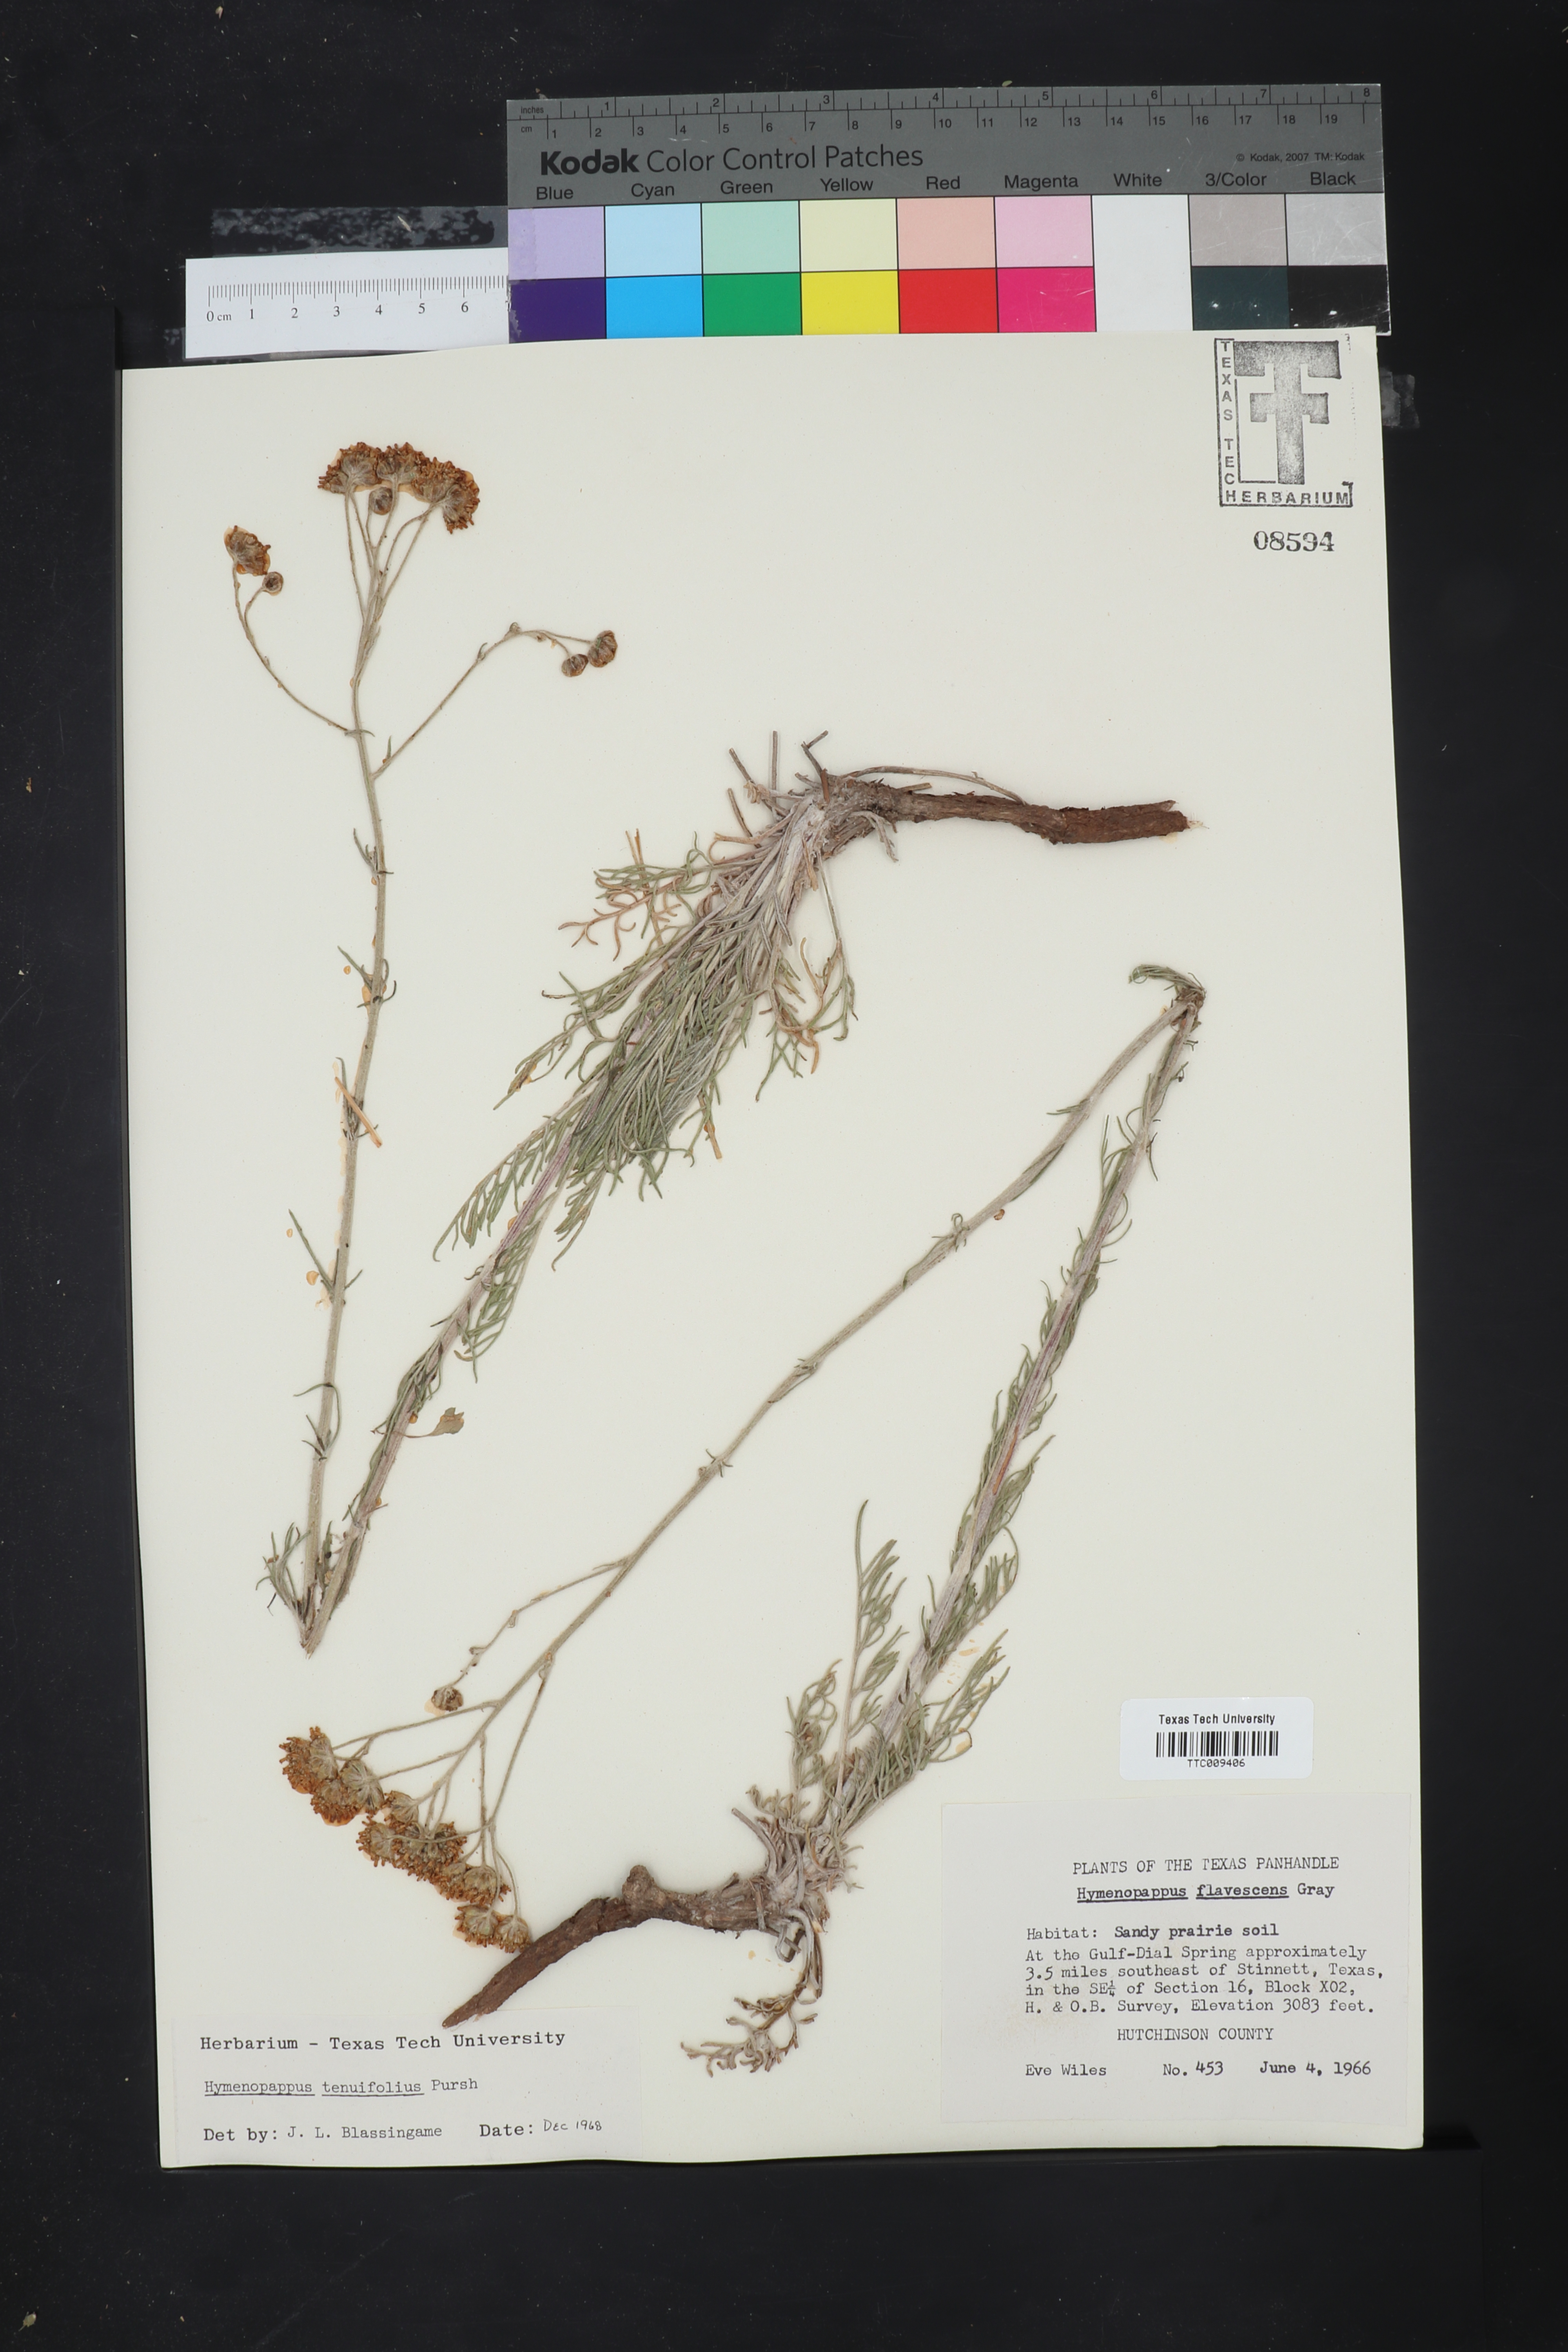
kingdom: Plantae
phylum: Tracheophyta
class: Magnoliopsida
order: Asterales
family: Asteraceae
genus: Hymenopappus
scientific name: Hymenopappus tenuifolius
